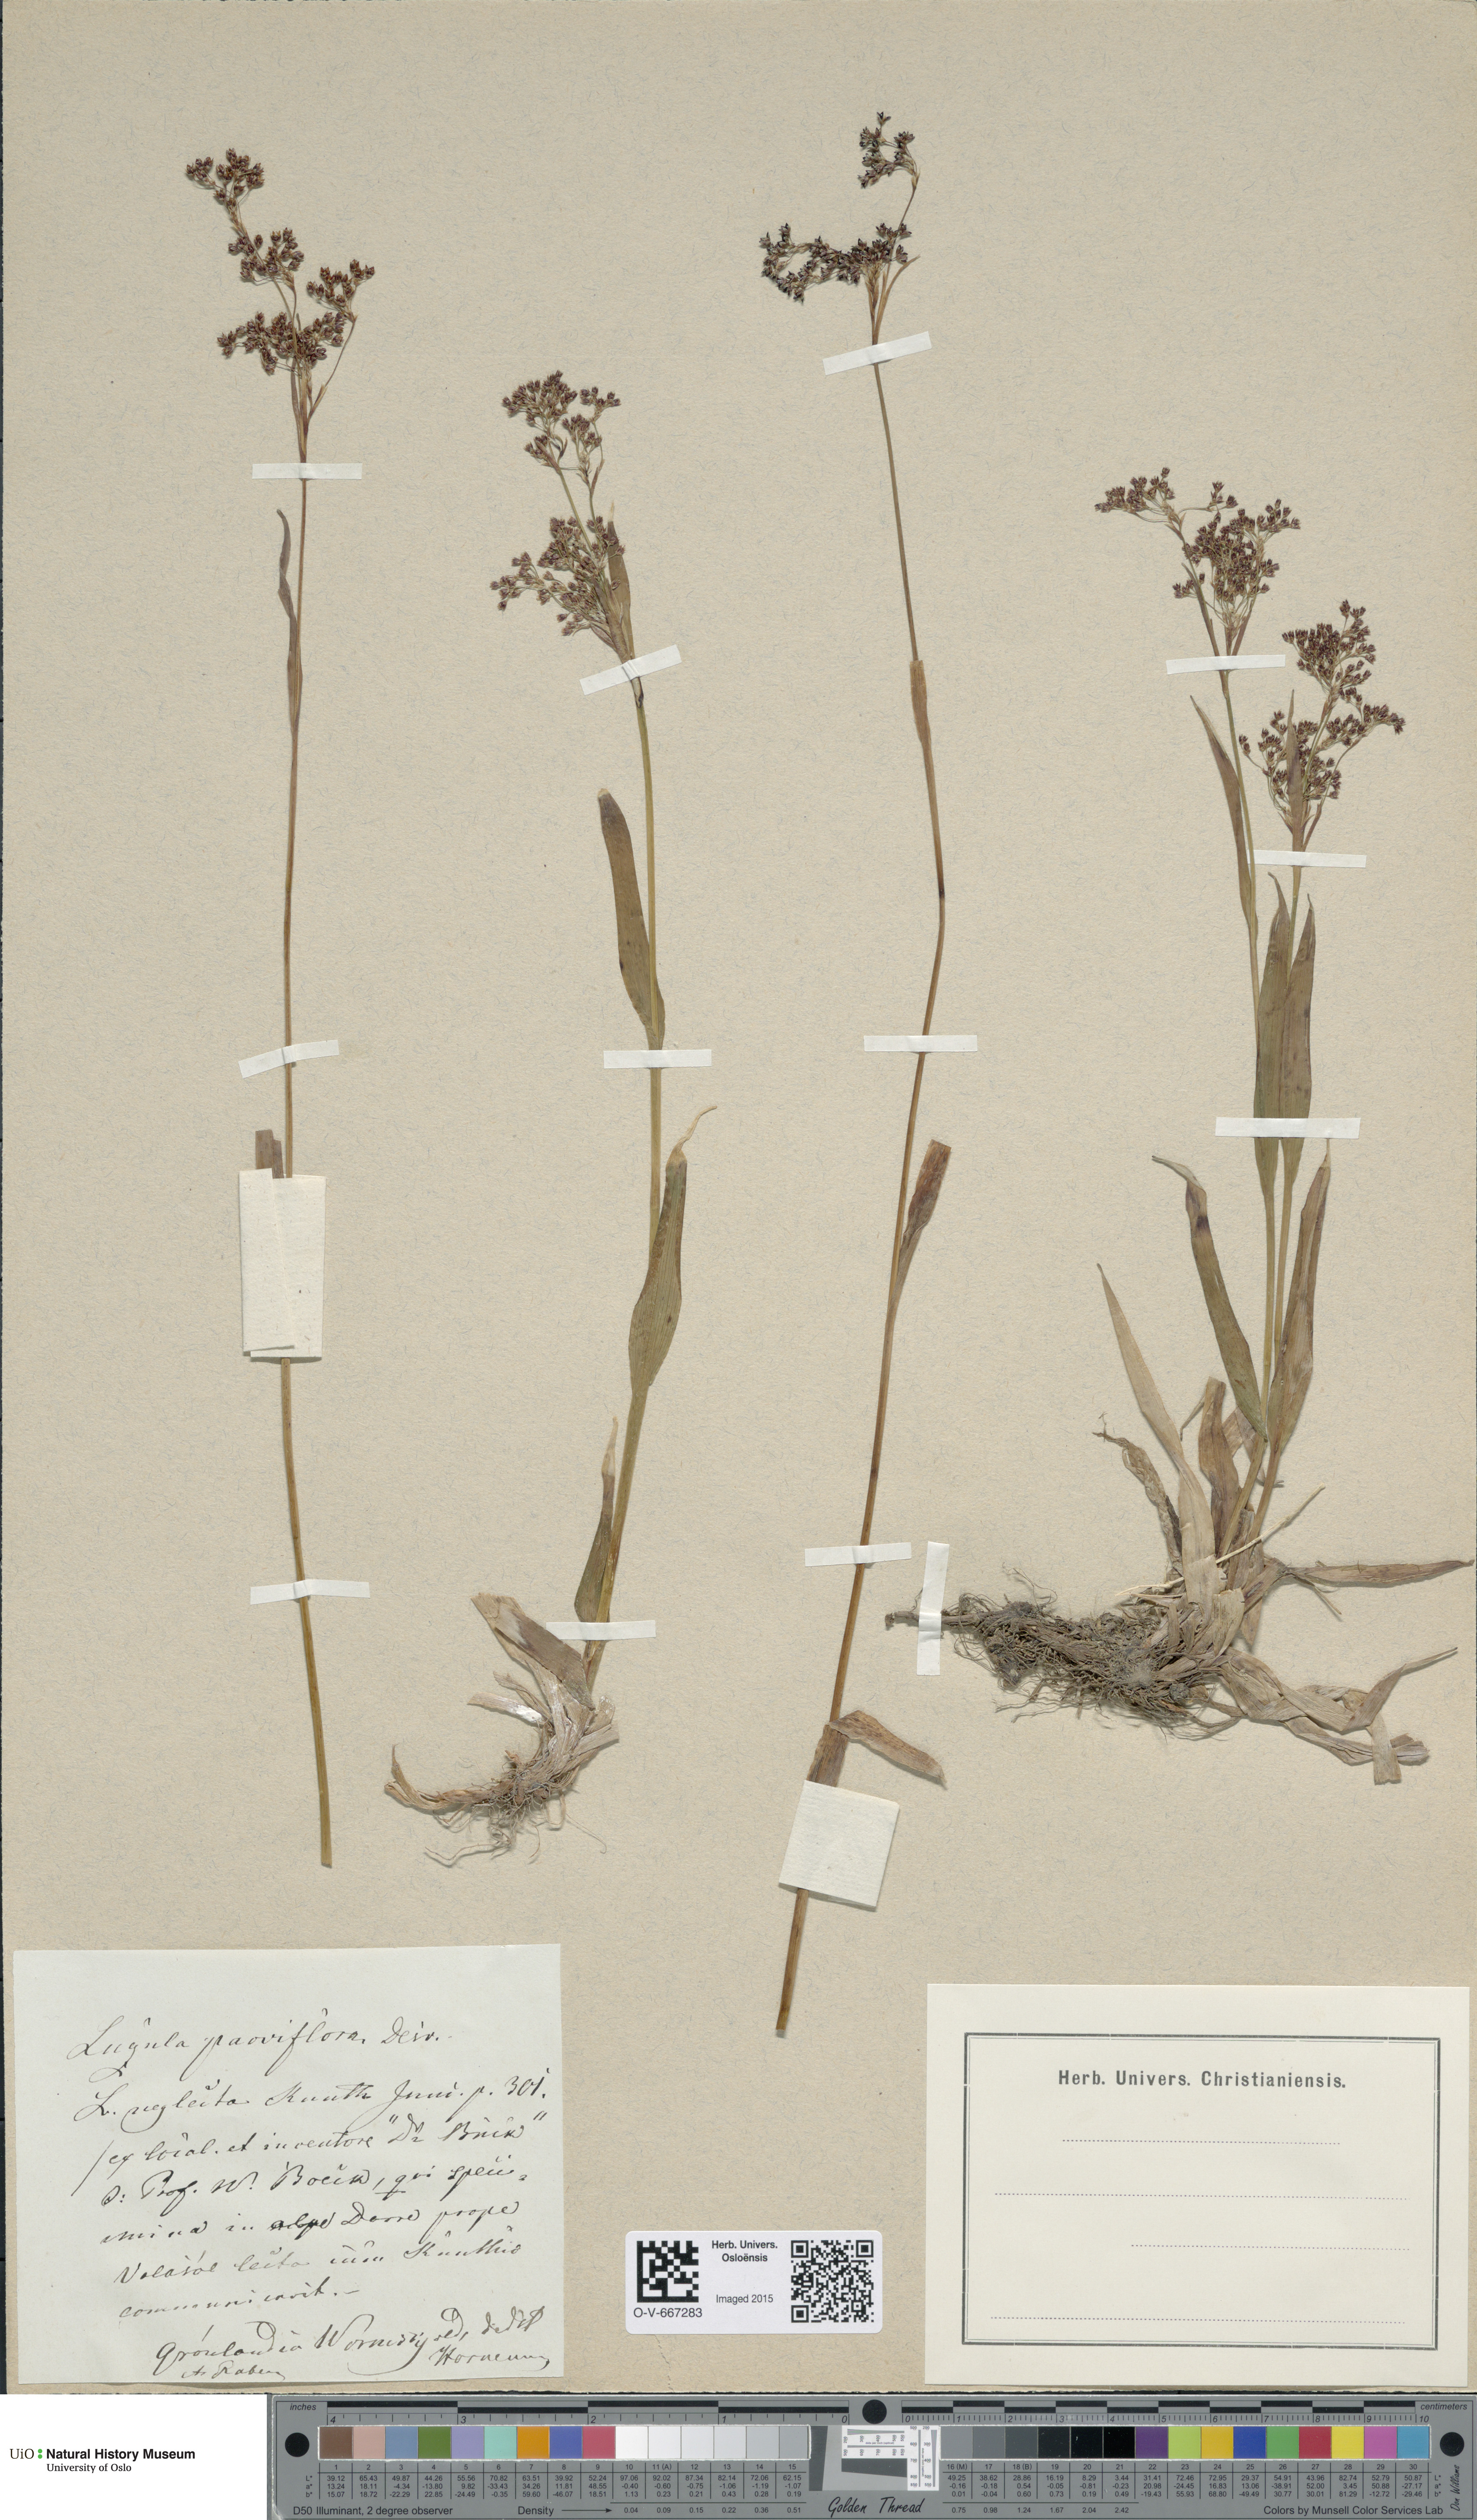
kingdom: Plantae
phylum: Tracheophyta
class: Liliopsida
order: Poales
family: Juncaceae
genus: Luzula
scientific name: Luzula parviflora
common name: Millet woodrush
